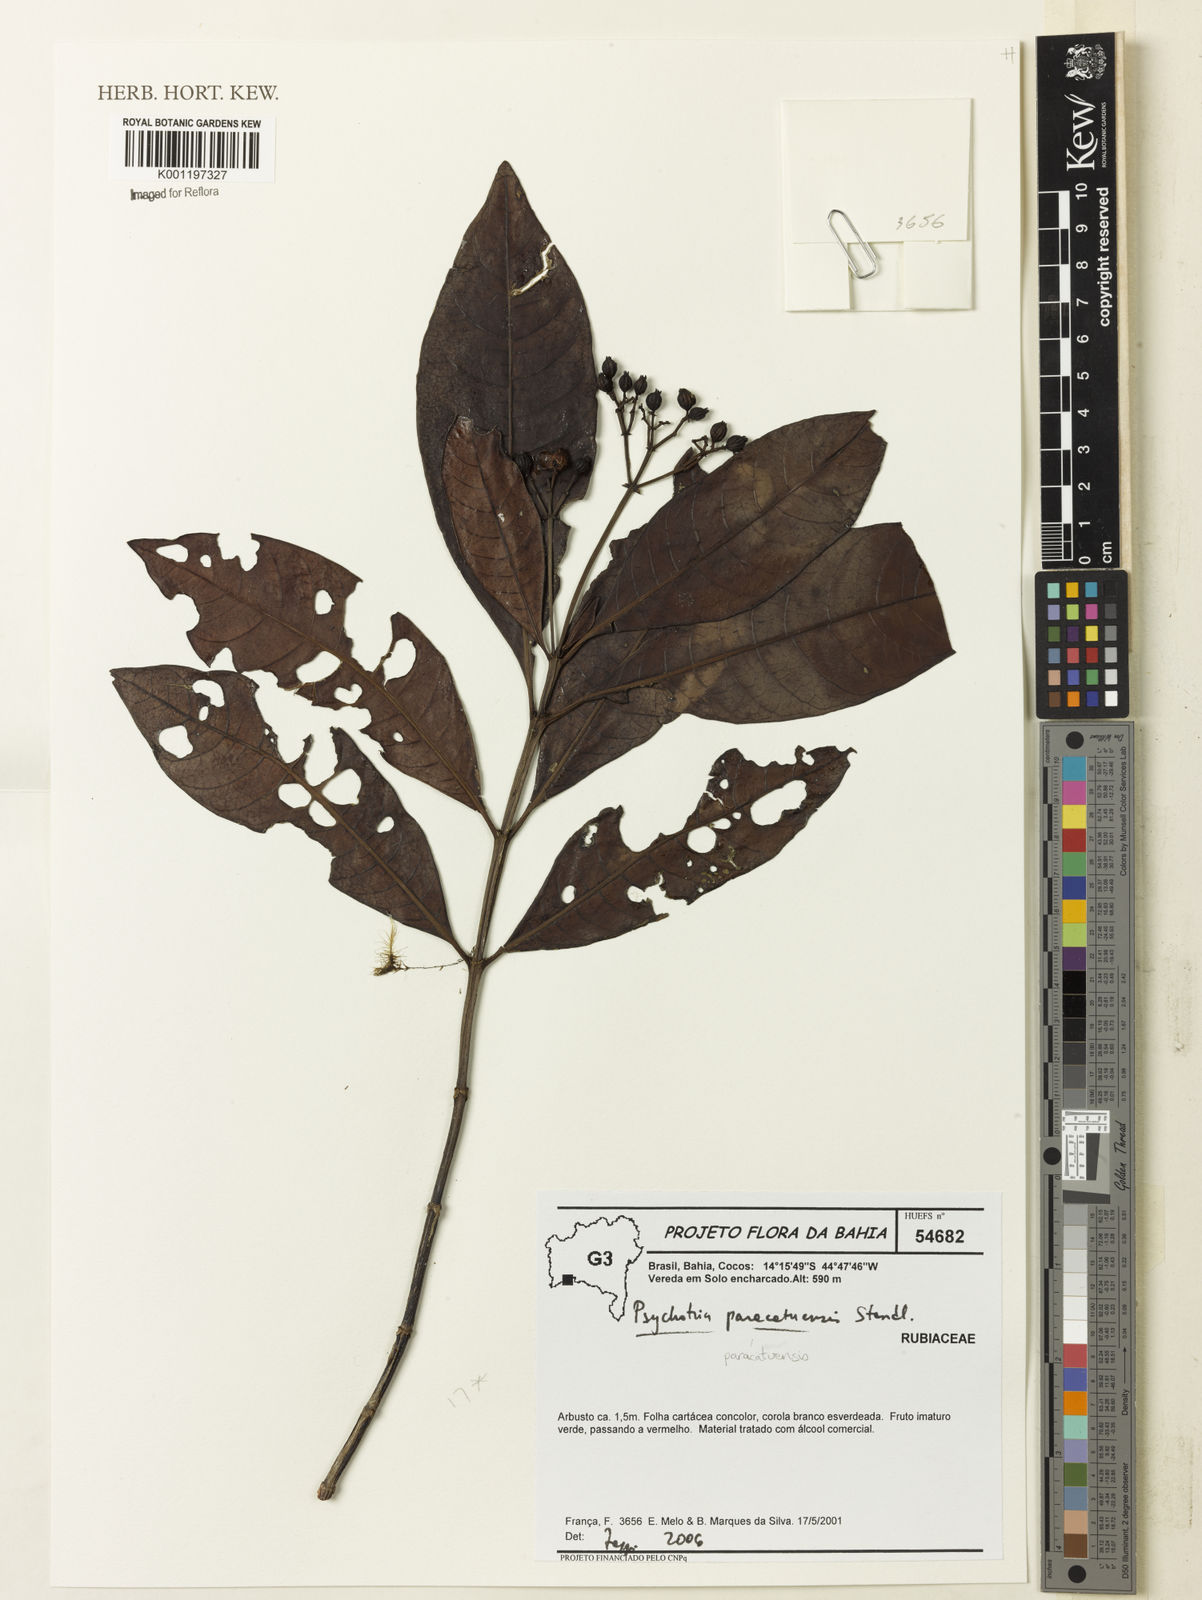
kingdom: Plantae
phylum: Tracheophyta
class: Magnoliopsida
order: Gentianales
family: Rubiaceae
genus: Psychotria
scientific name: Psychotria anceps
